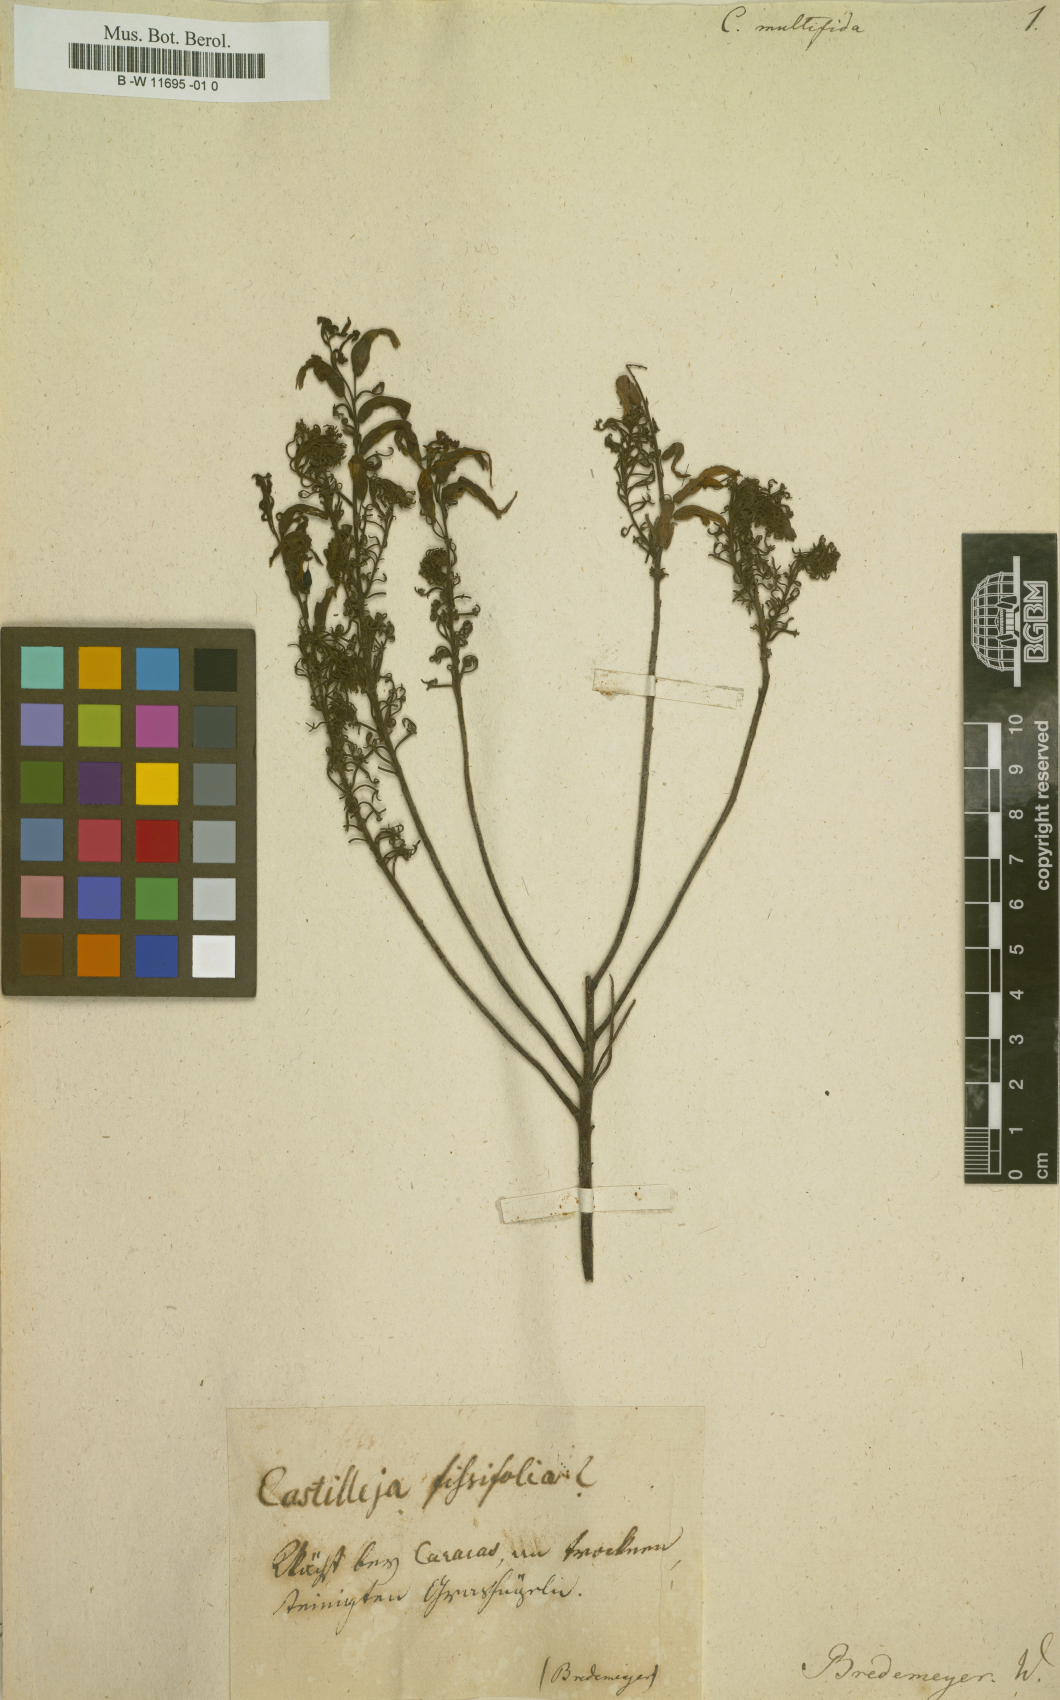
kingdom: Plantae
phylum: Tracheophyta
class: Magnoliopsida
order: Lamiales
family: Orobanchaceae
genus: Castilleja
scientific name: Castilleja
